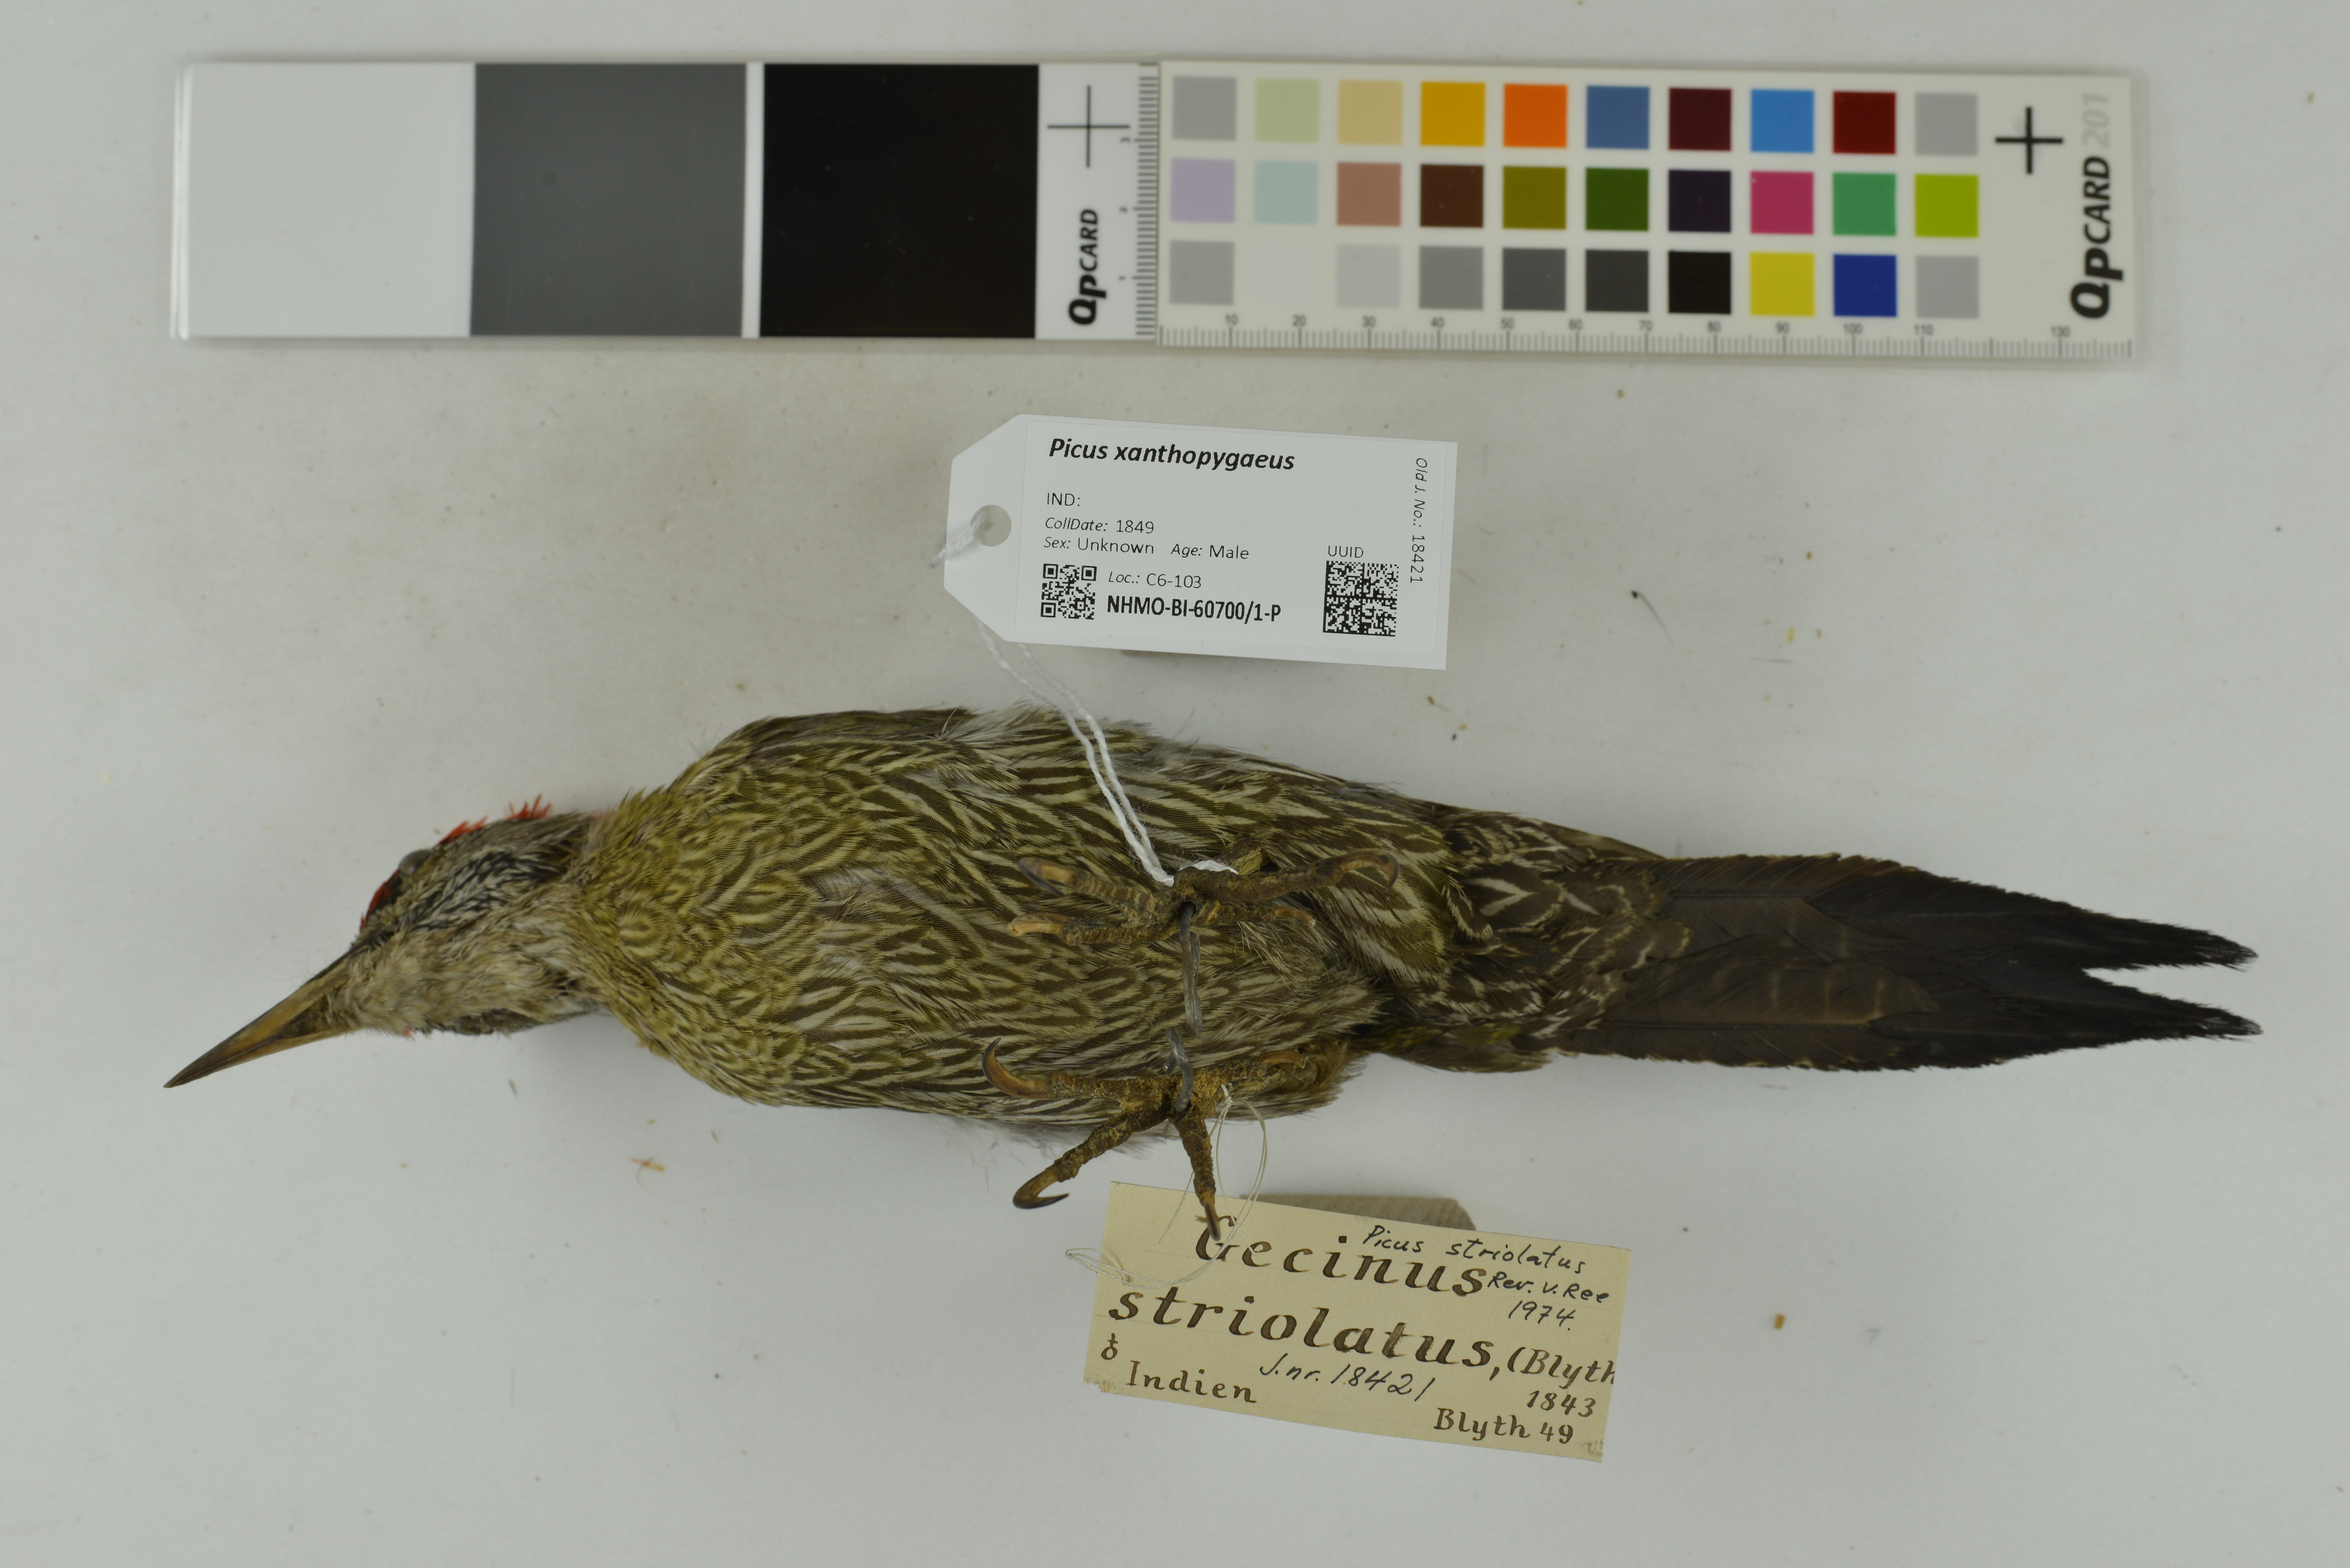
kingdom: Animalia
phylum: Chordata
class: Aves
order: Piciformes
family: Picidae
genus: Picus
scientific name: Picus xanthopygaeus
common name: Streak-throated woodpecker
